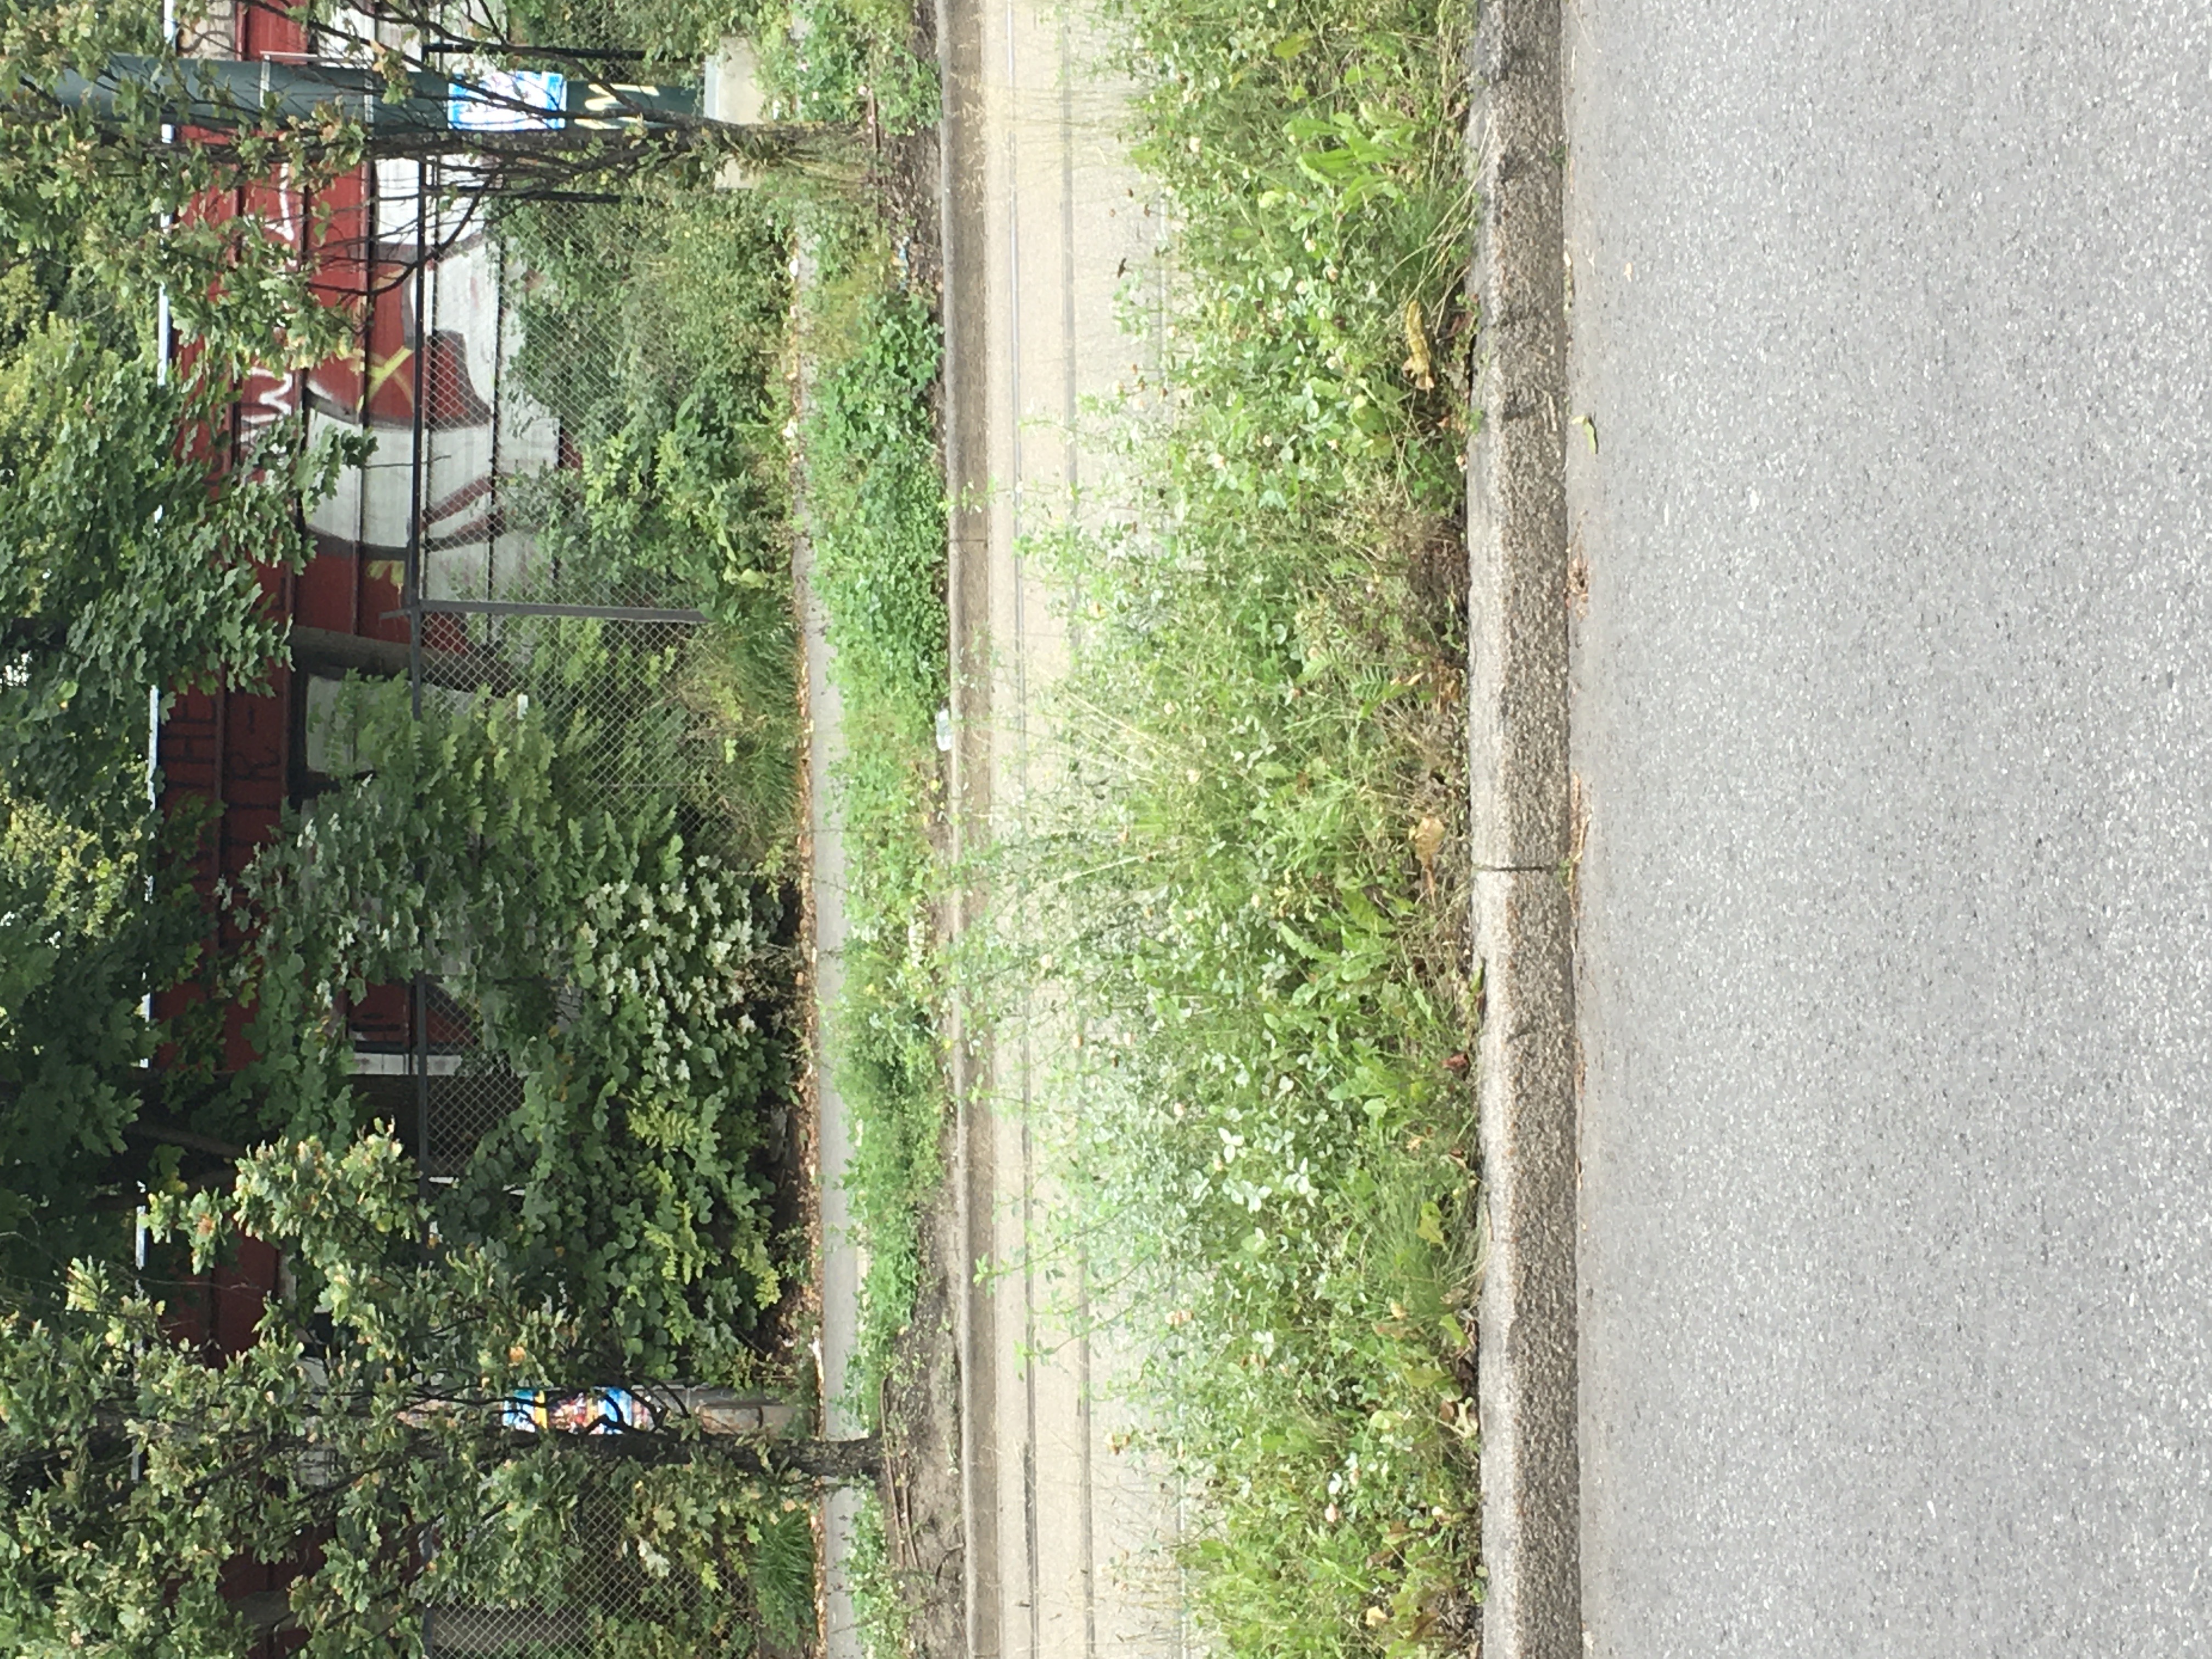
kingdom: Plantae
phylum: Tracheophyta
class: Magnoliopsida
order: Fabales
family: Fabaceae
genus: Melilotus
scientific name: Melilotus officinalis
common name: legesteinkløver
